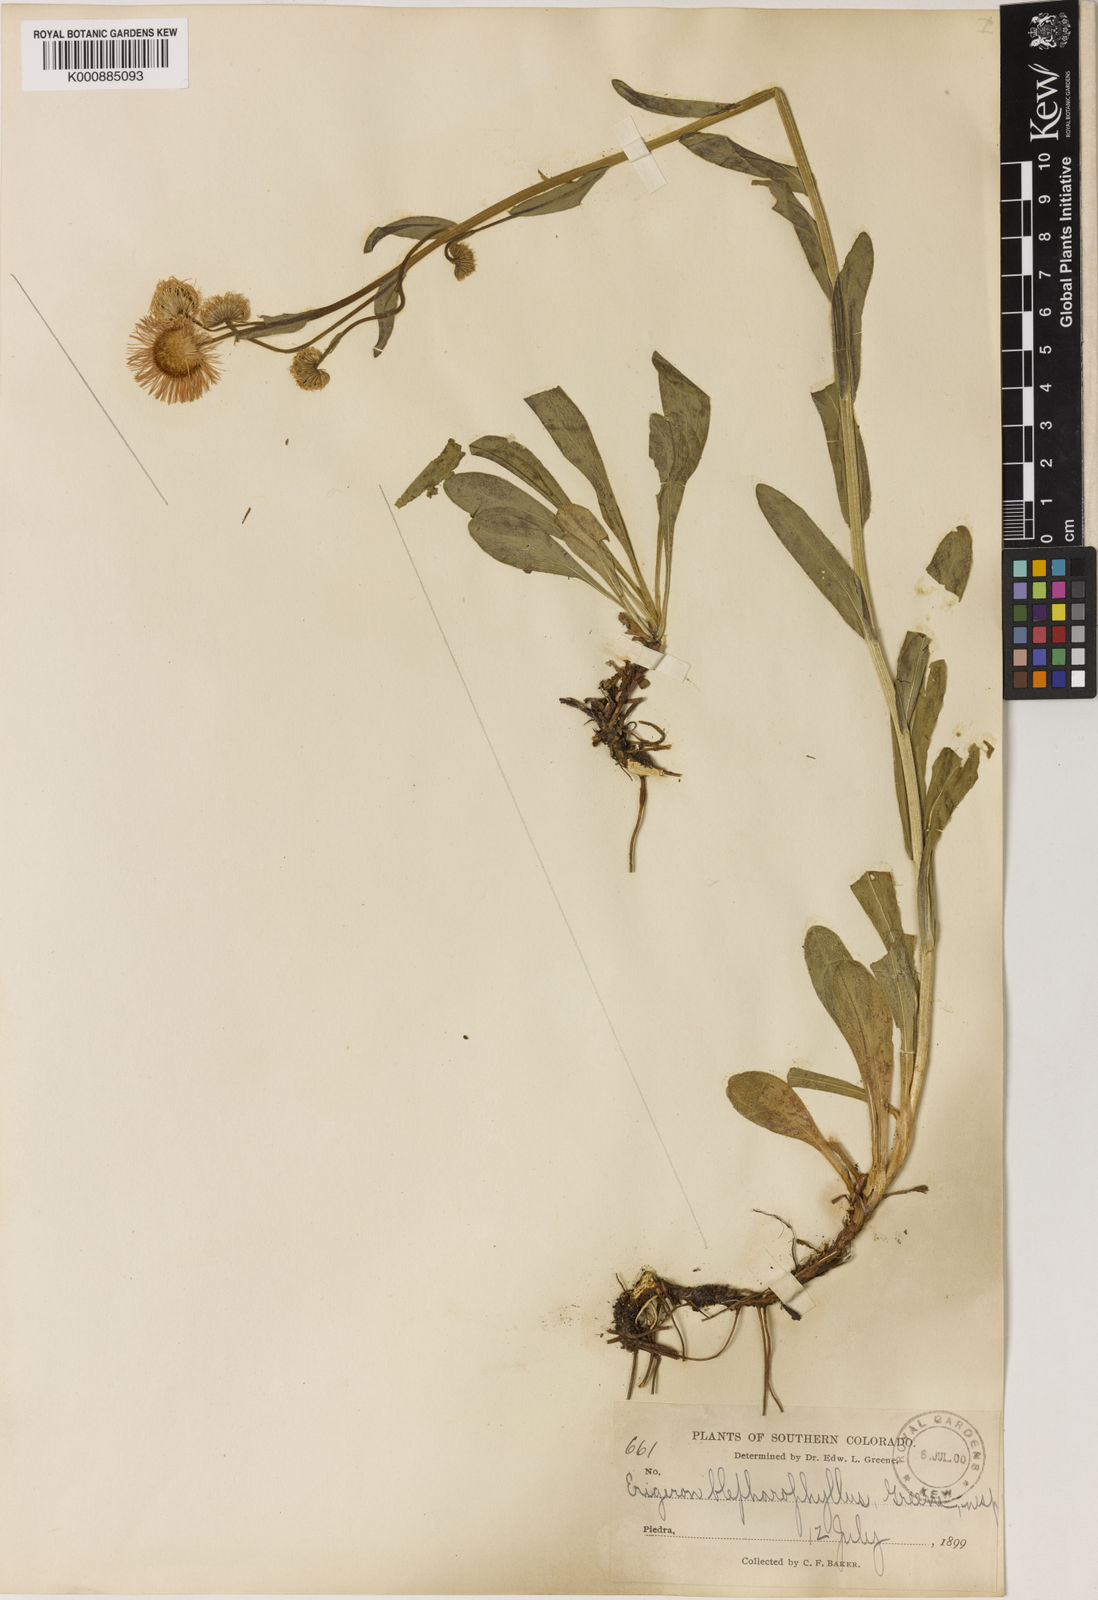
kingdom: Plantae
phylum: Tracheophyta
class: Magnoliopsida
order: Asterales
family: Asteraceae
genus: Erigeron
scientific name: Erigeron
